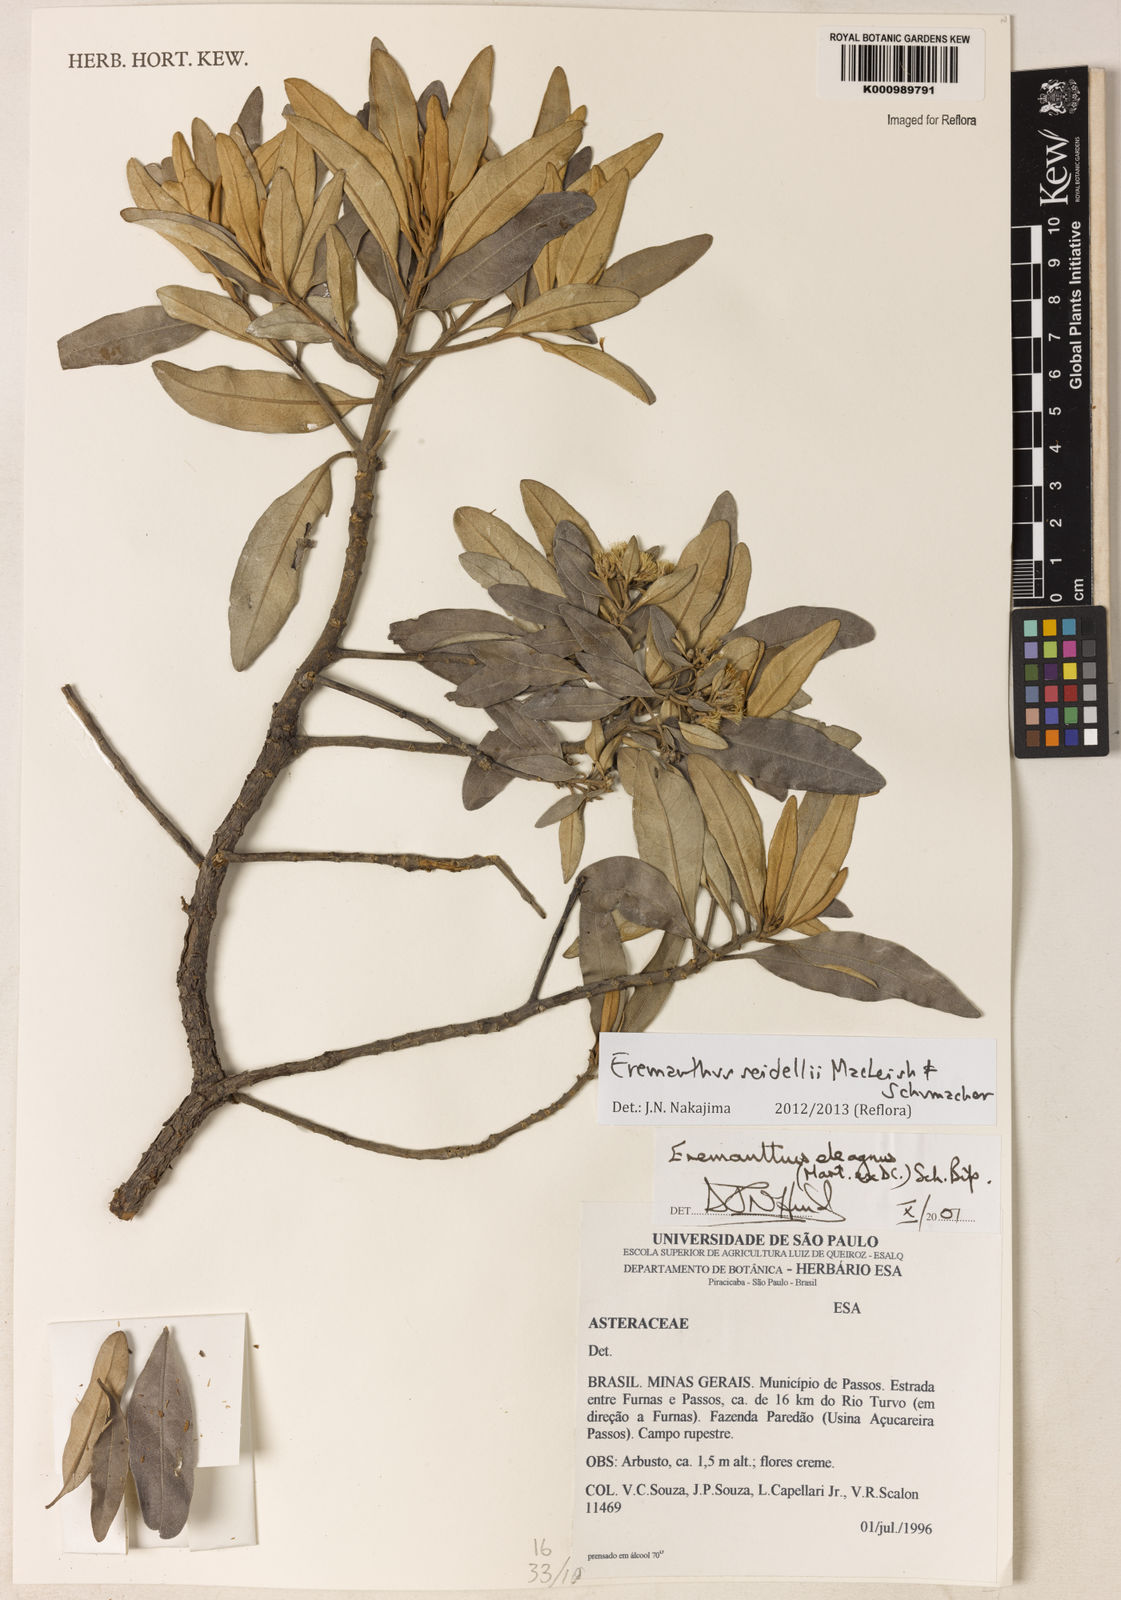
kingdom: Plantae
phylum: Tracheophyta
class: Magnoliopsida
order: Asterales
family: Asteraceae
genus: Eremanthus
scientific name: Eremanthus elaeagnus
